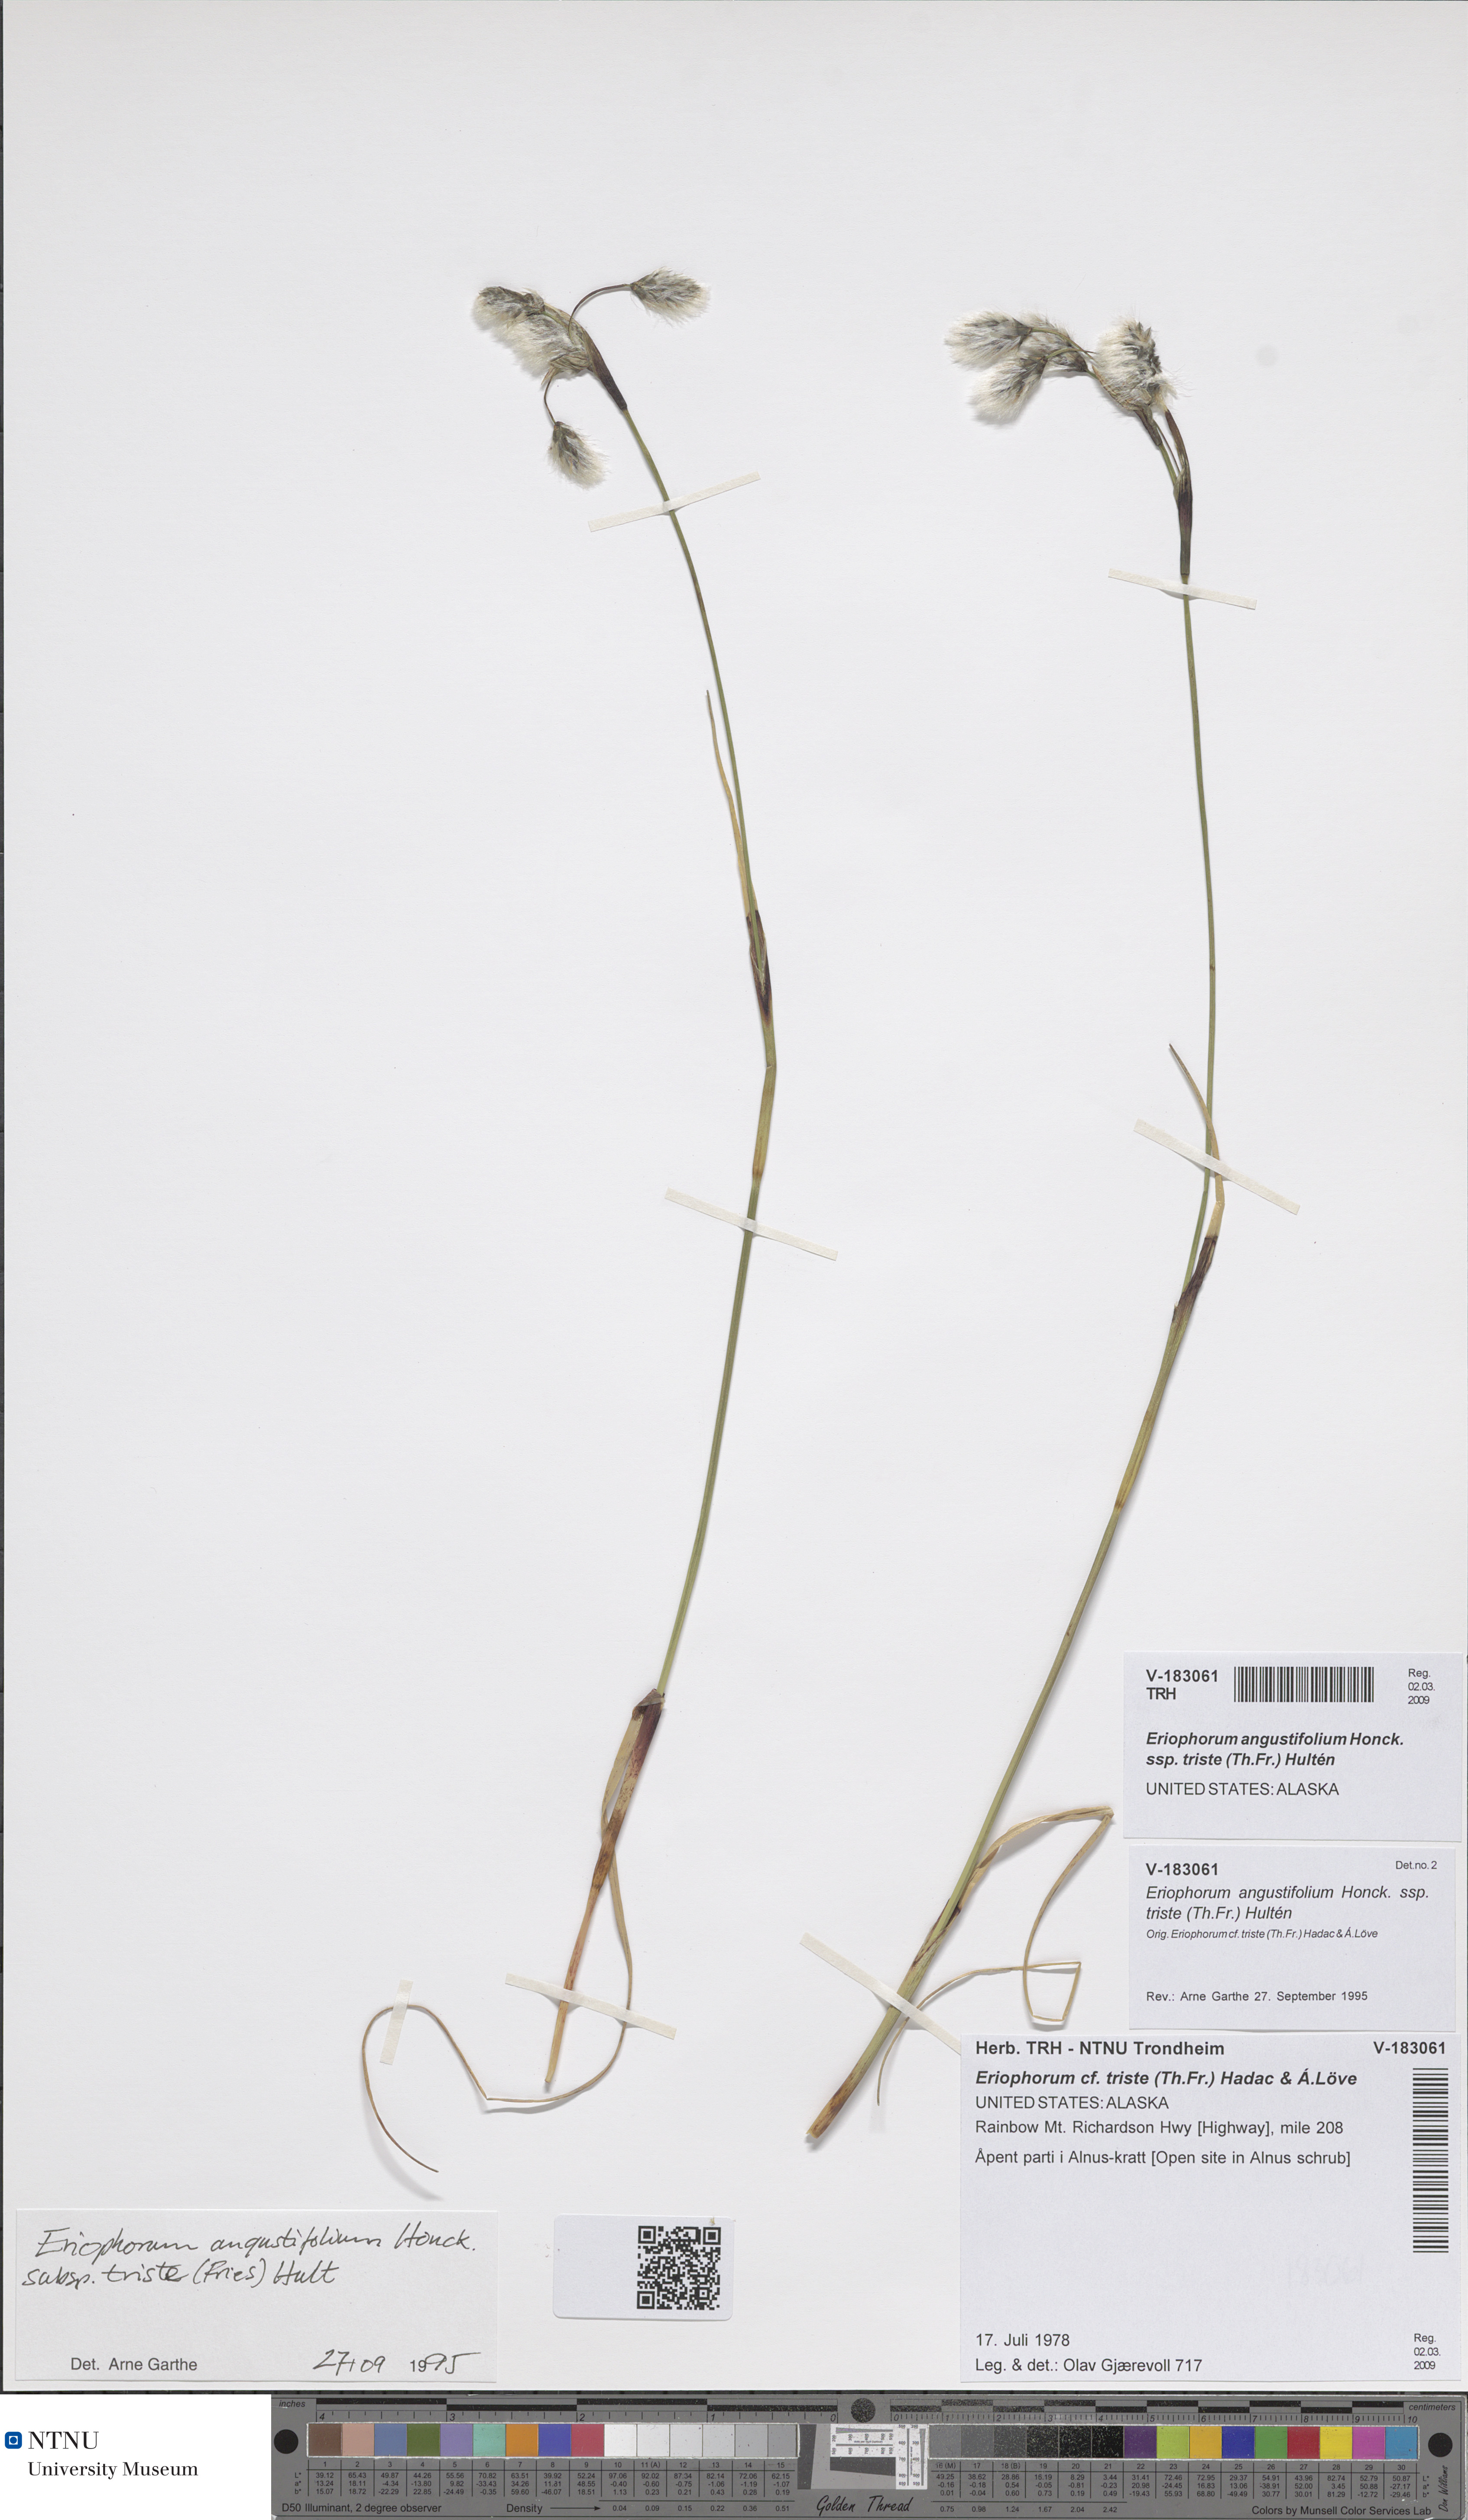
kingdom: Plantae
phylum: Tracheophyta
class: Liliopsida
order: Poales
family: Cyperaceae
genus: Eriophorum
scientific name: Eriophorum triste
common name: Tall cottongrass
